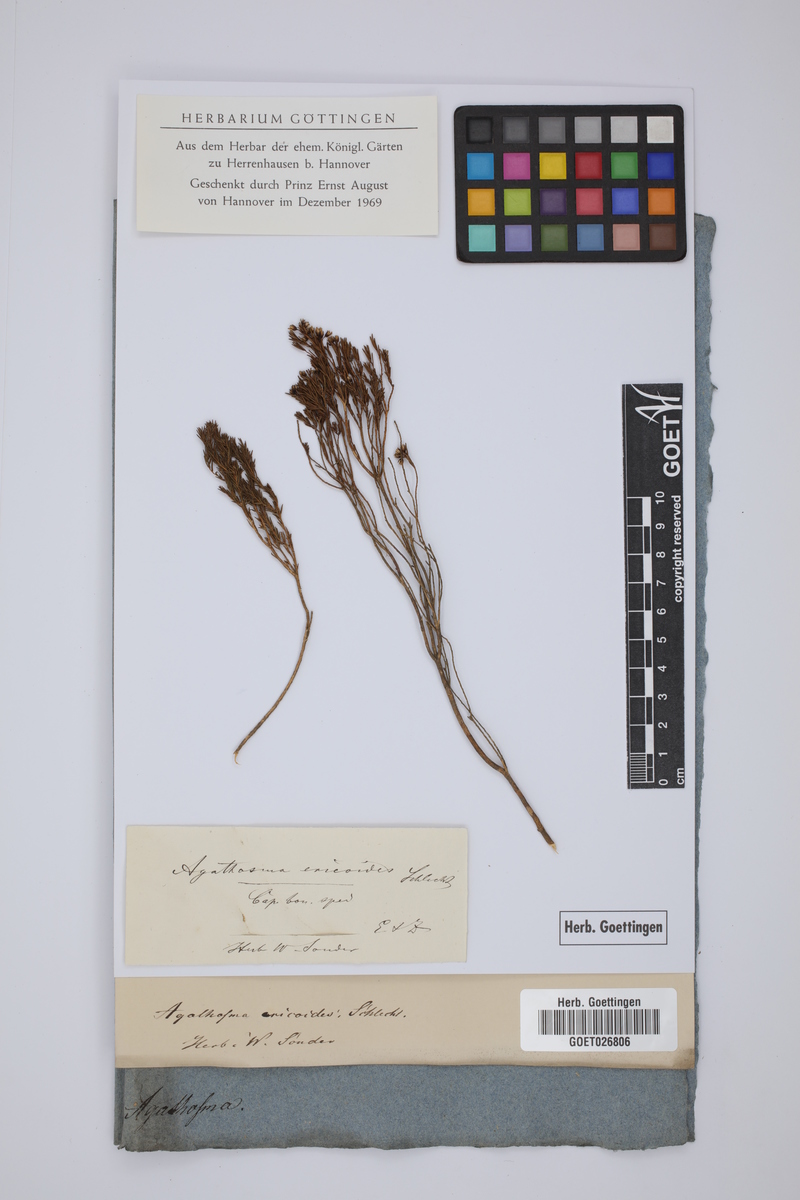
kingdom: Plantae
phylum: Tracheophyta
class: Magnoliopsida
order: Sapindales
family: Rutaceae
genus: Agathosma
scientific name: Agathosma capensis
